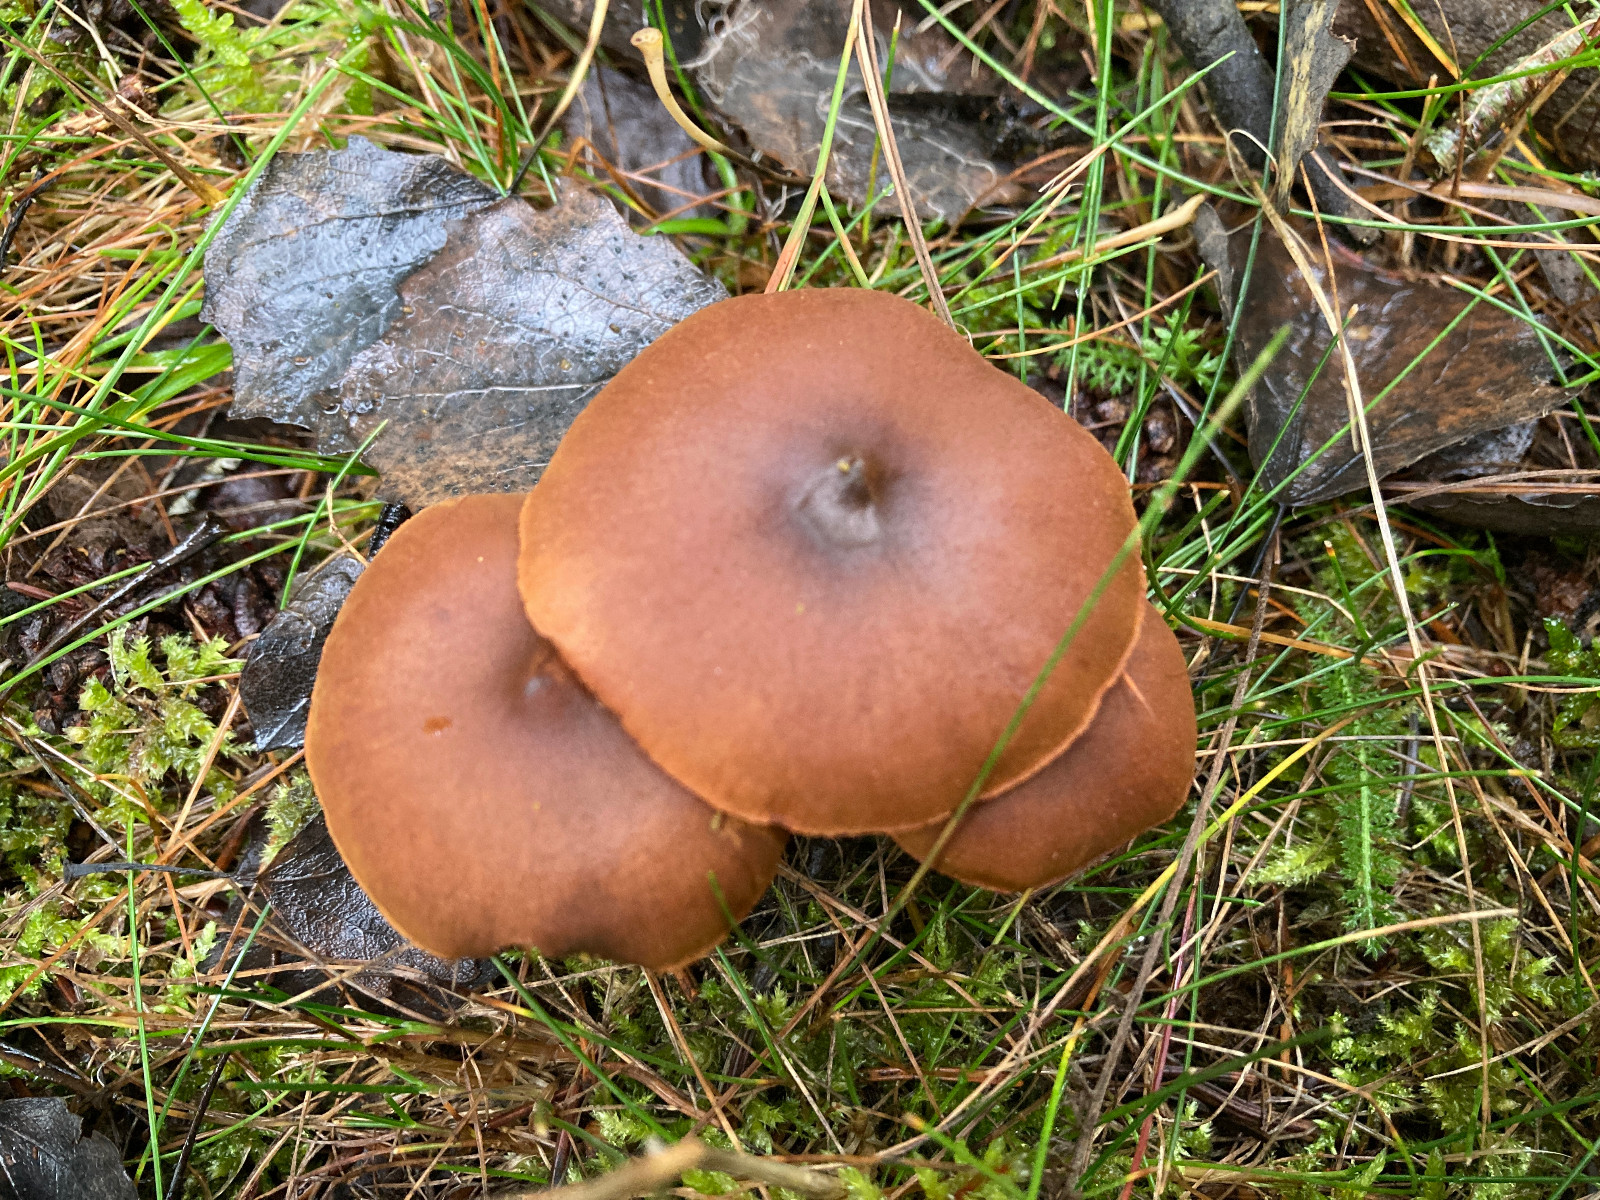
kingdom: Fungi
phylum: Basidiomycota
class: Agaricomycetes
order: Agaricales
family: Cortinariaceae
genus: Cortinarius
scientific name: Cortinarius malicorius
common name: grønkødet slørhat
